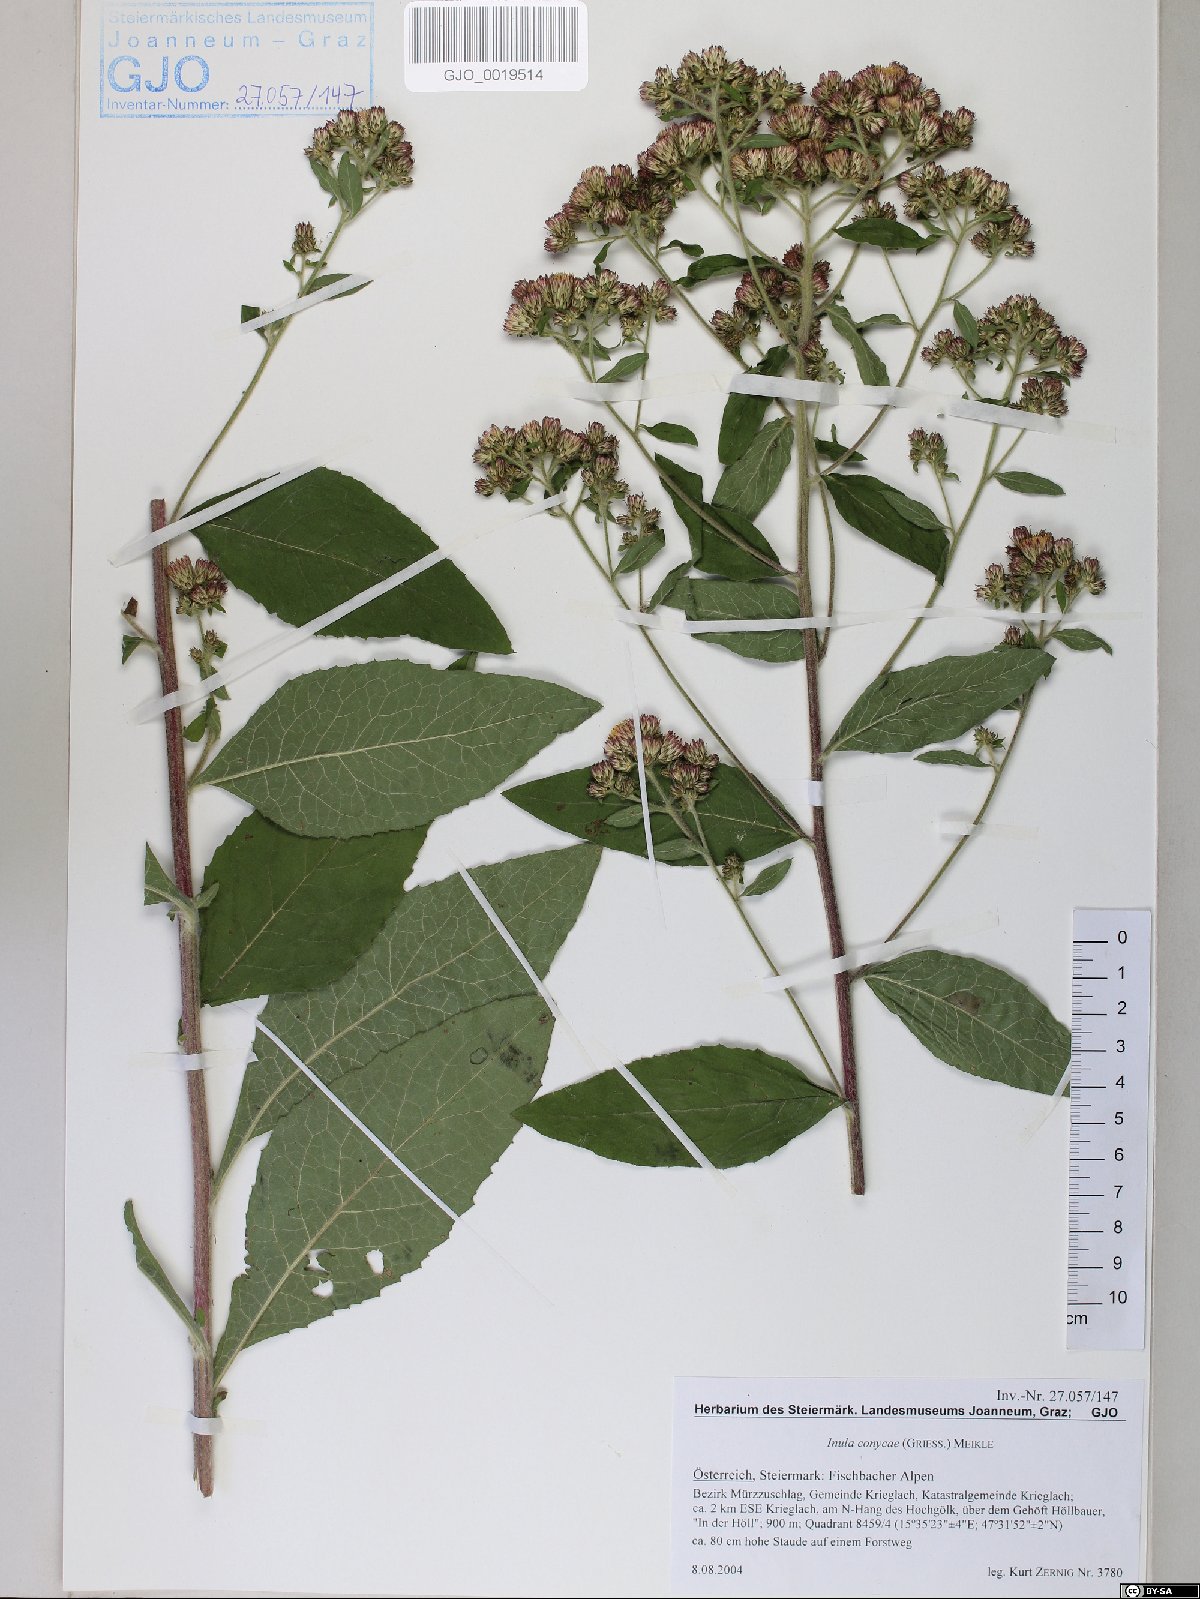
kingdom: Plantae
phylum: Tracheophyta
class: Magnoliopsida
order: Asterales
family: Asteraceae
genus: Pentanema
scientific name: Pentanema squarrosum
